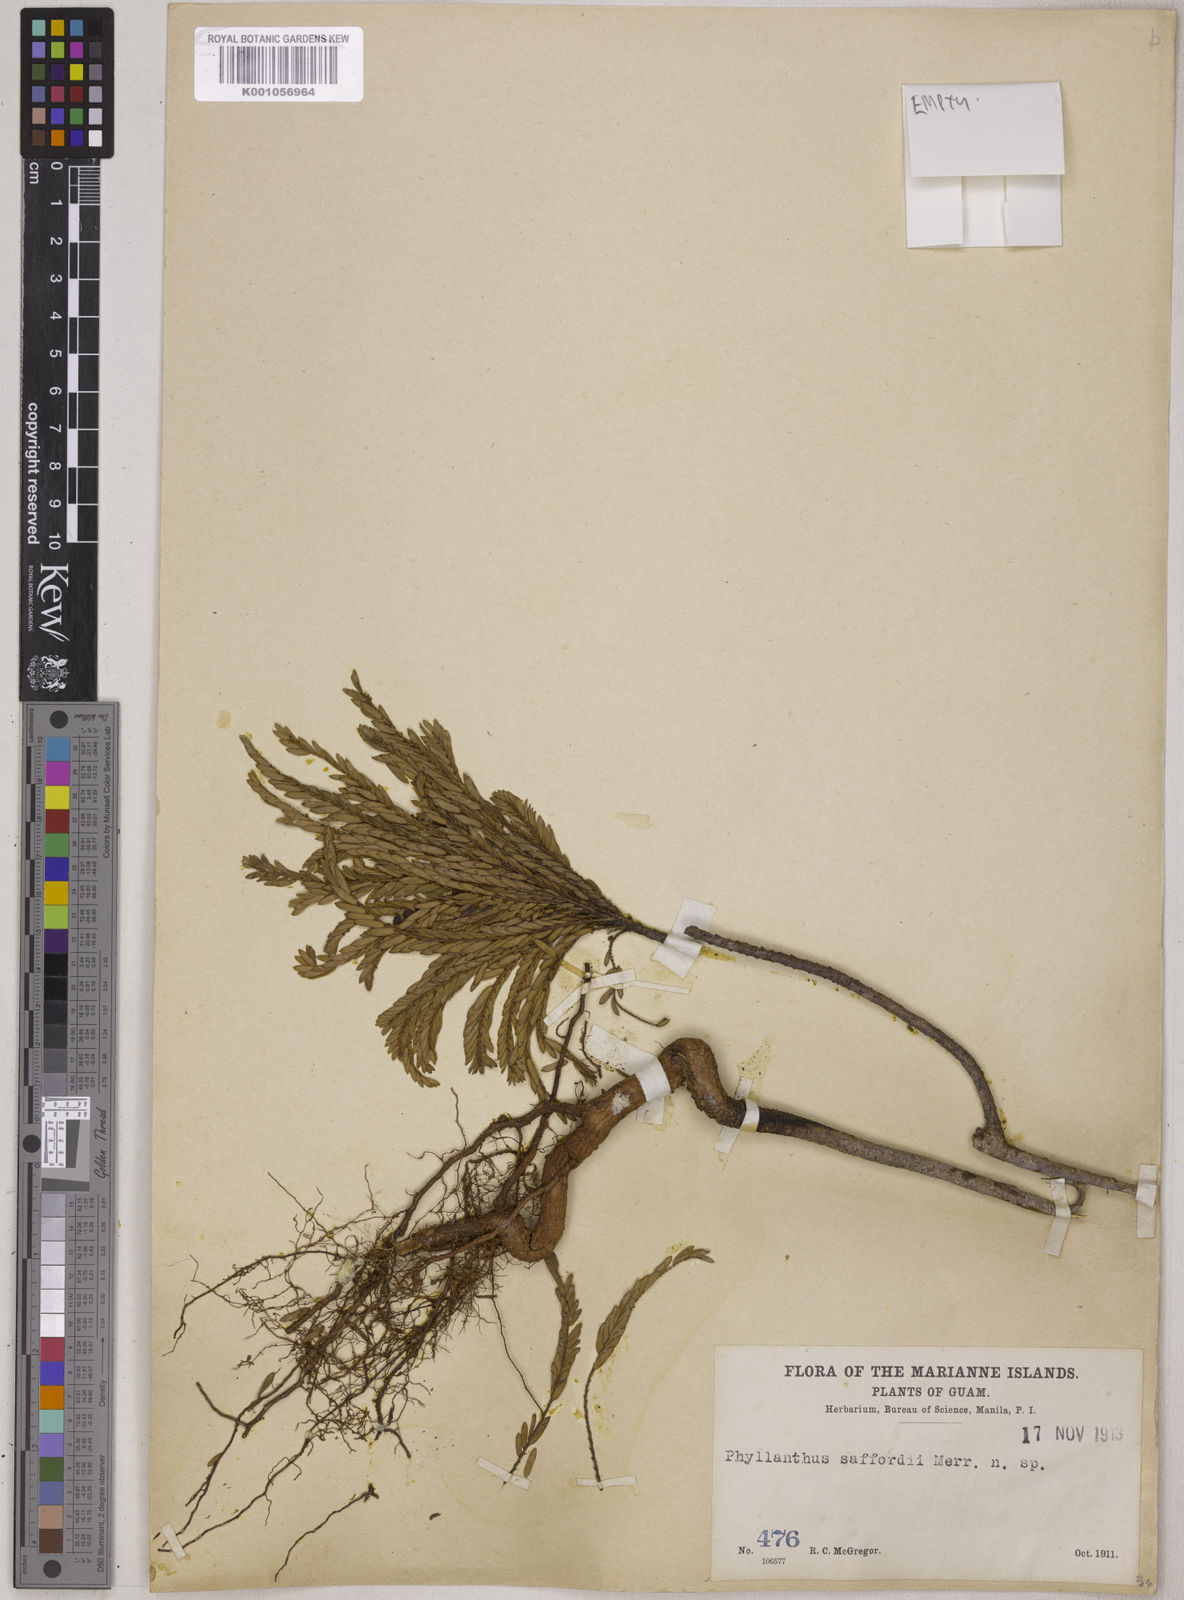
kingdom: Plantae
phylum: Tracheophyta
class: Magnoliopsida
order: Malpighiales
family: Phyllanthaceae
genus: Phyllanthus
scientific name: Phyllanthus saffordii
